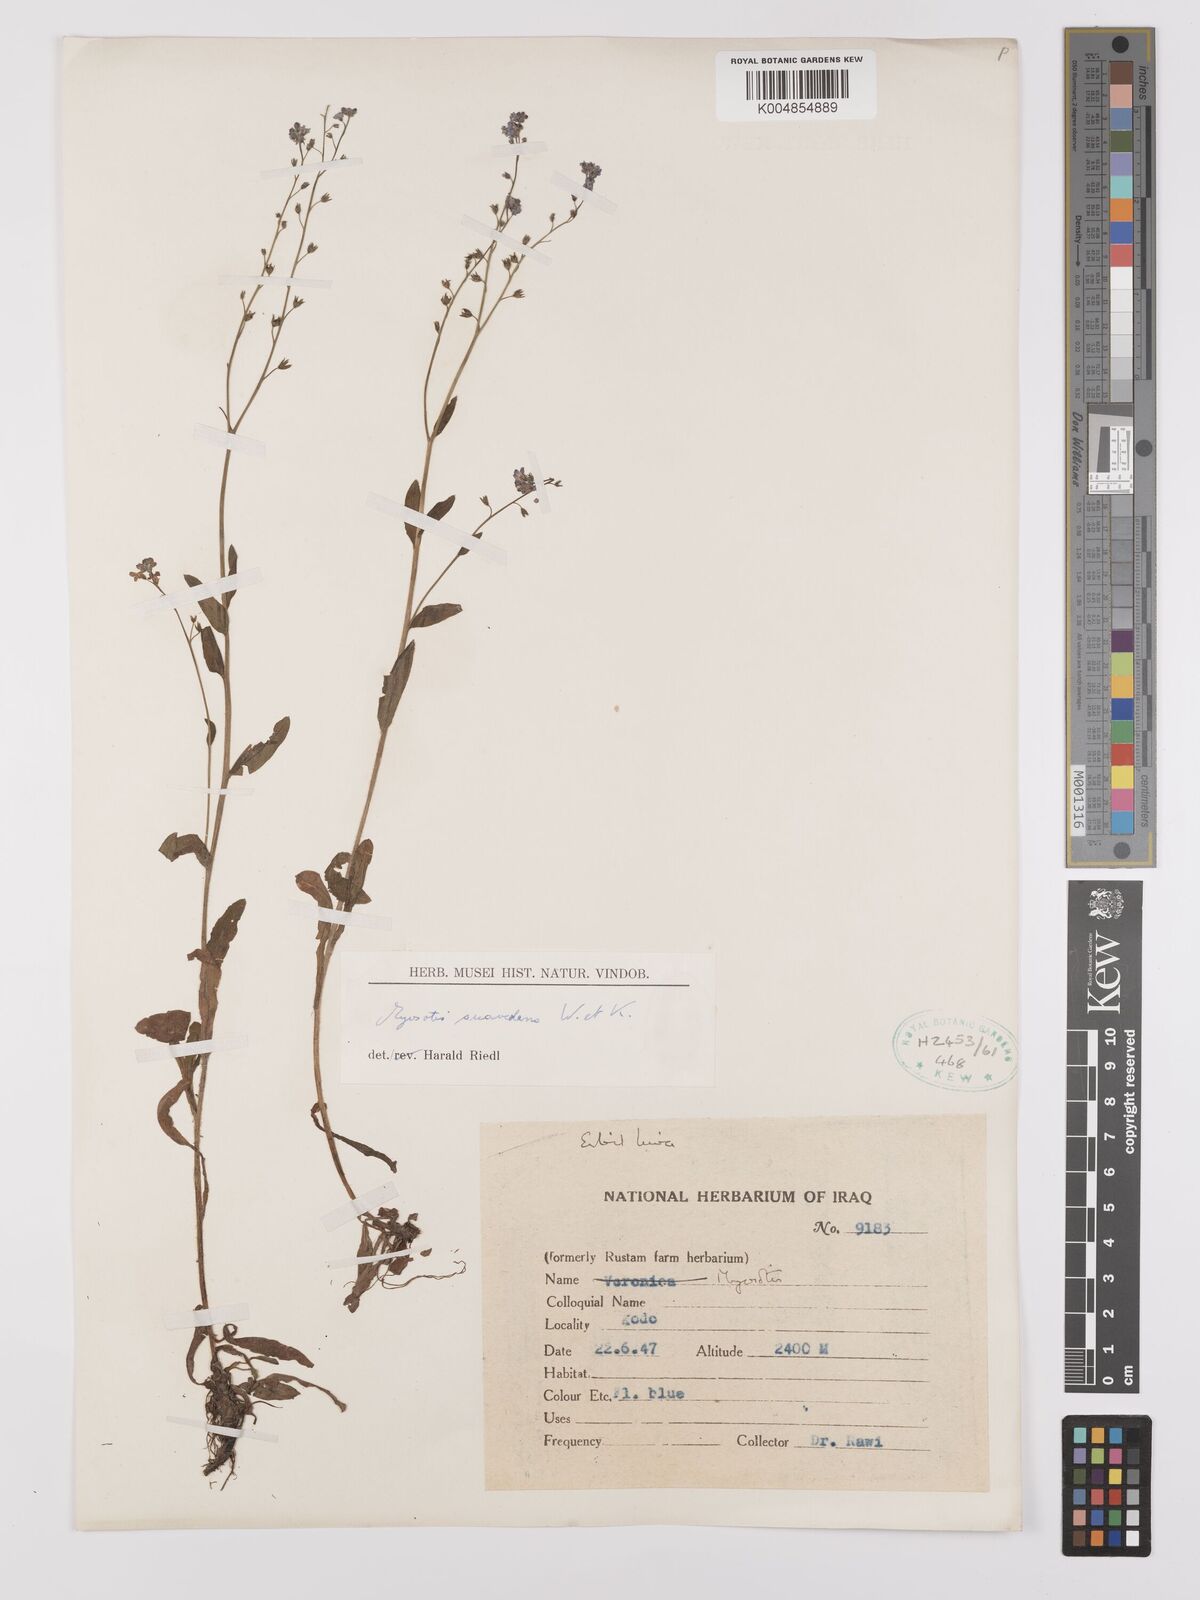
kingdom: Plantae
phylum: Tracheophyta
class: Magnoliopsida
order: Boraginales
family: Boraginaceae
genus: Myosotis
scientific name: Myosotis
